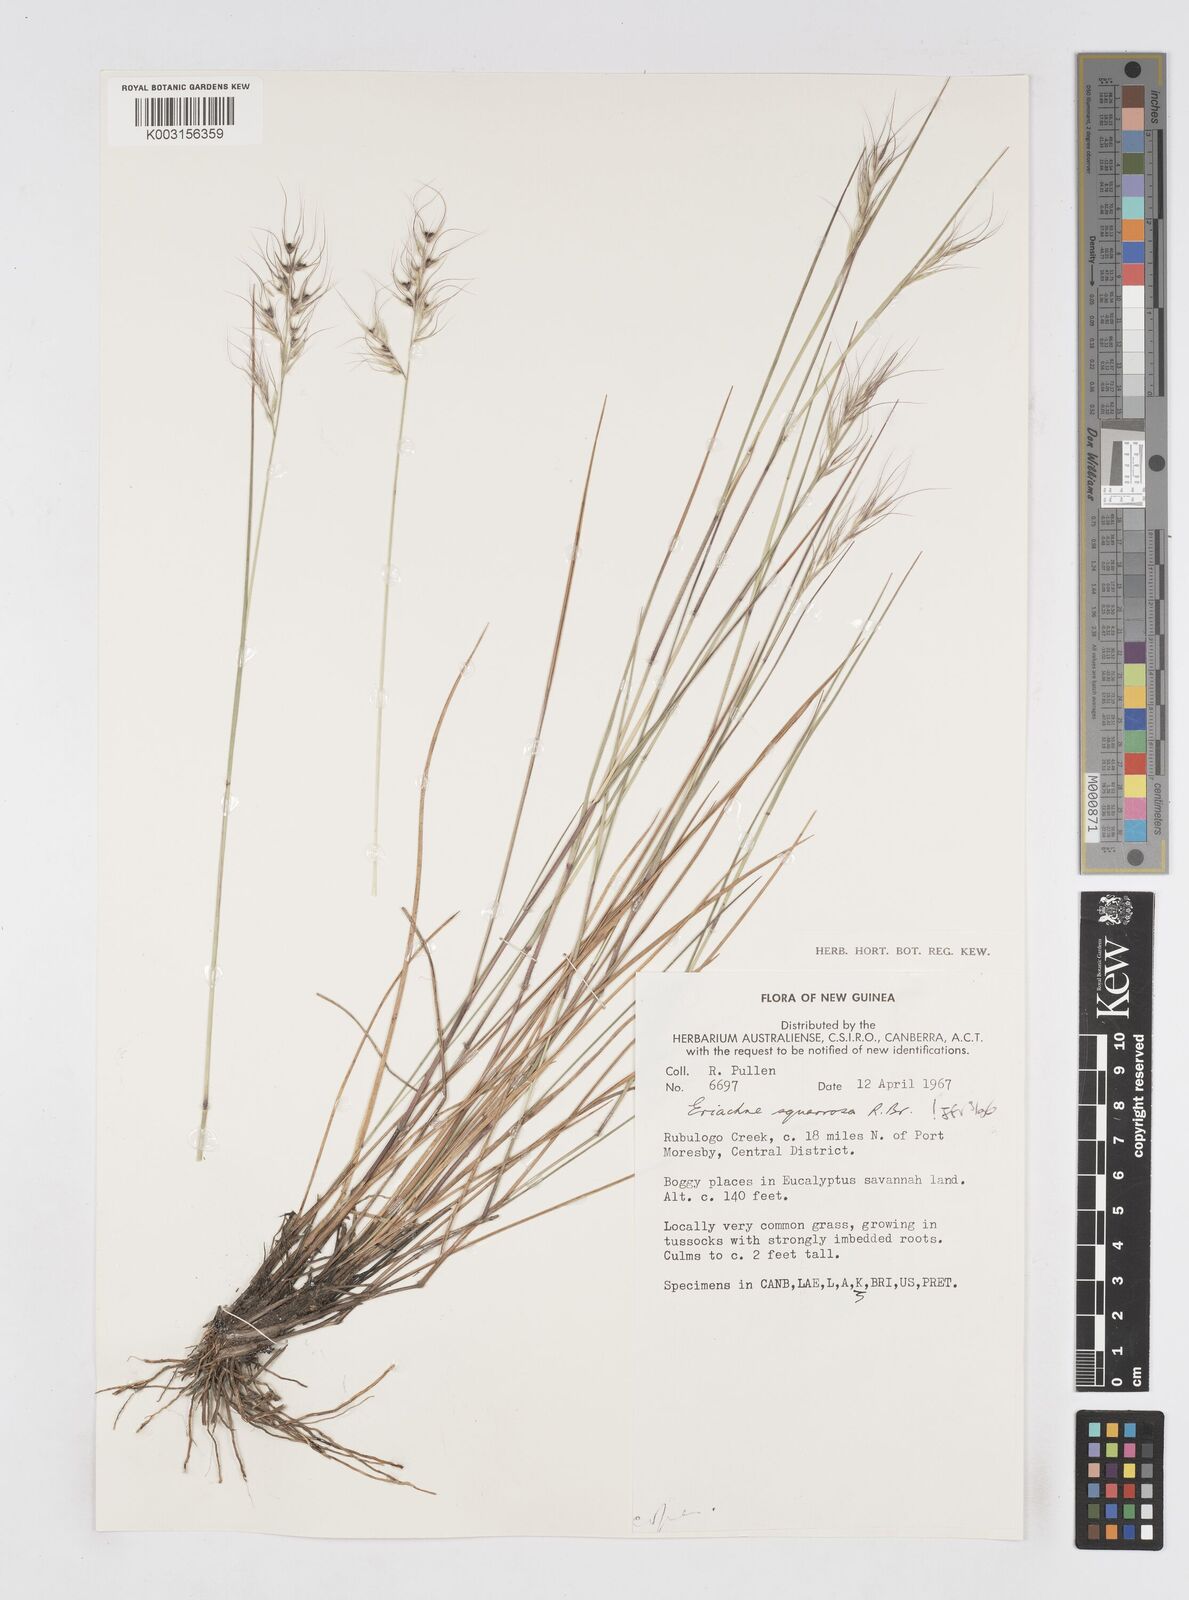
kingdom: Plantae
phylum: Tracheophyta
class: Liliopsida
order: Poales
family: Poaceae
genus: Eriachne
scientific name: Eriachne squarrosa
